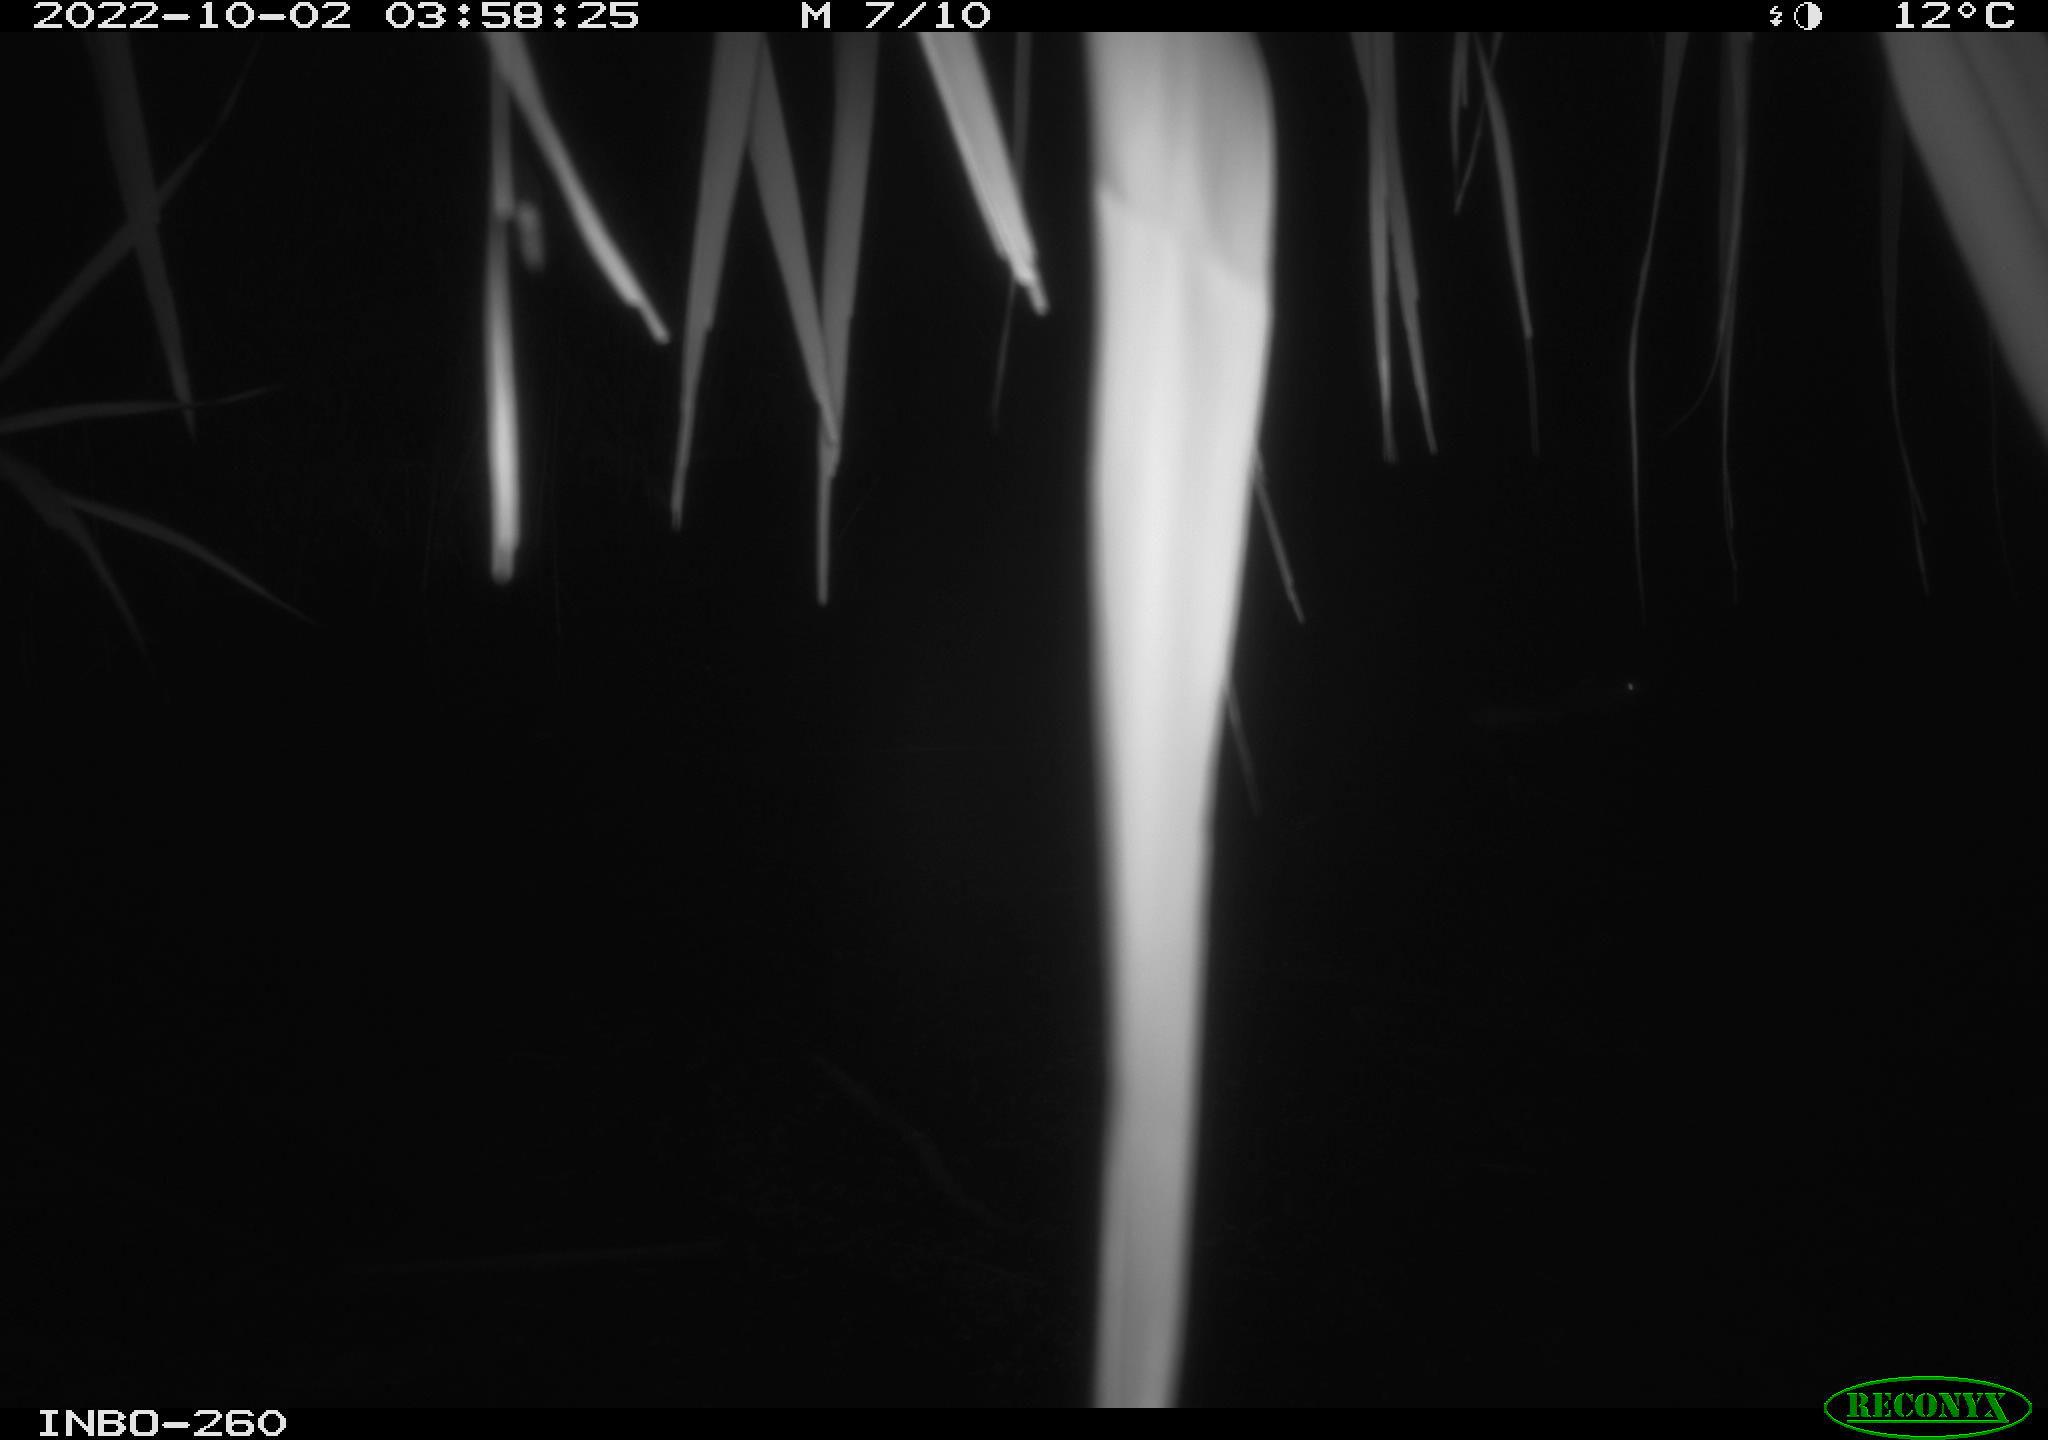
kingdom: Animalia
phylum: Chordata
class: Mammalia
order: Rodentia
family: Muridae
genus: Rattus
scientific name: Rattus norvegicus
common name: Brown rat
